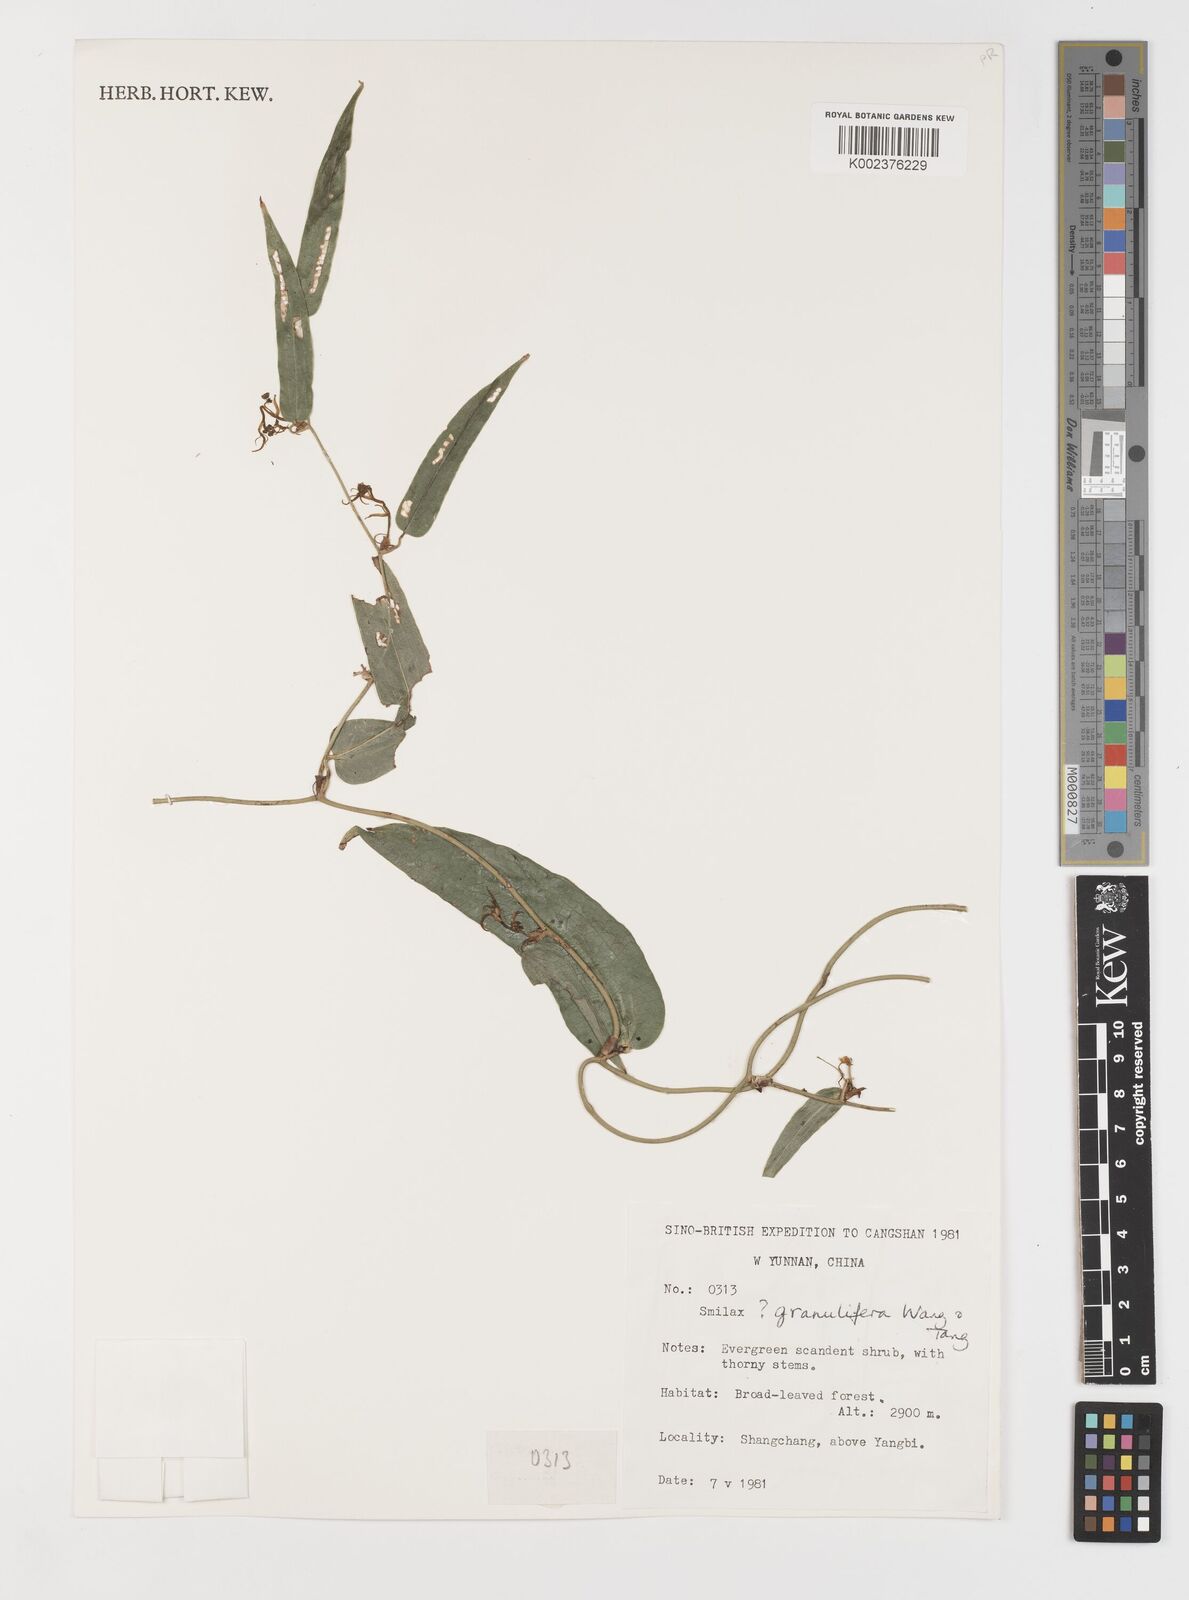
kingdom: Plantae
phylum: Tracheophyta
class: Liliopsida
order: Liliales
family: Smilacaceae
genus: Smilax
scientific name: Smilax
